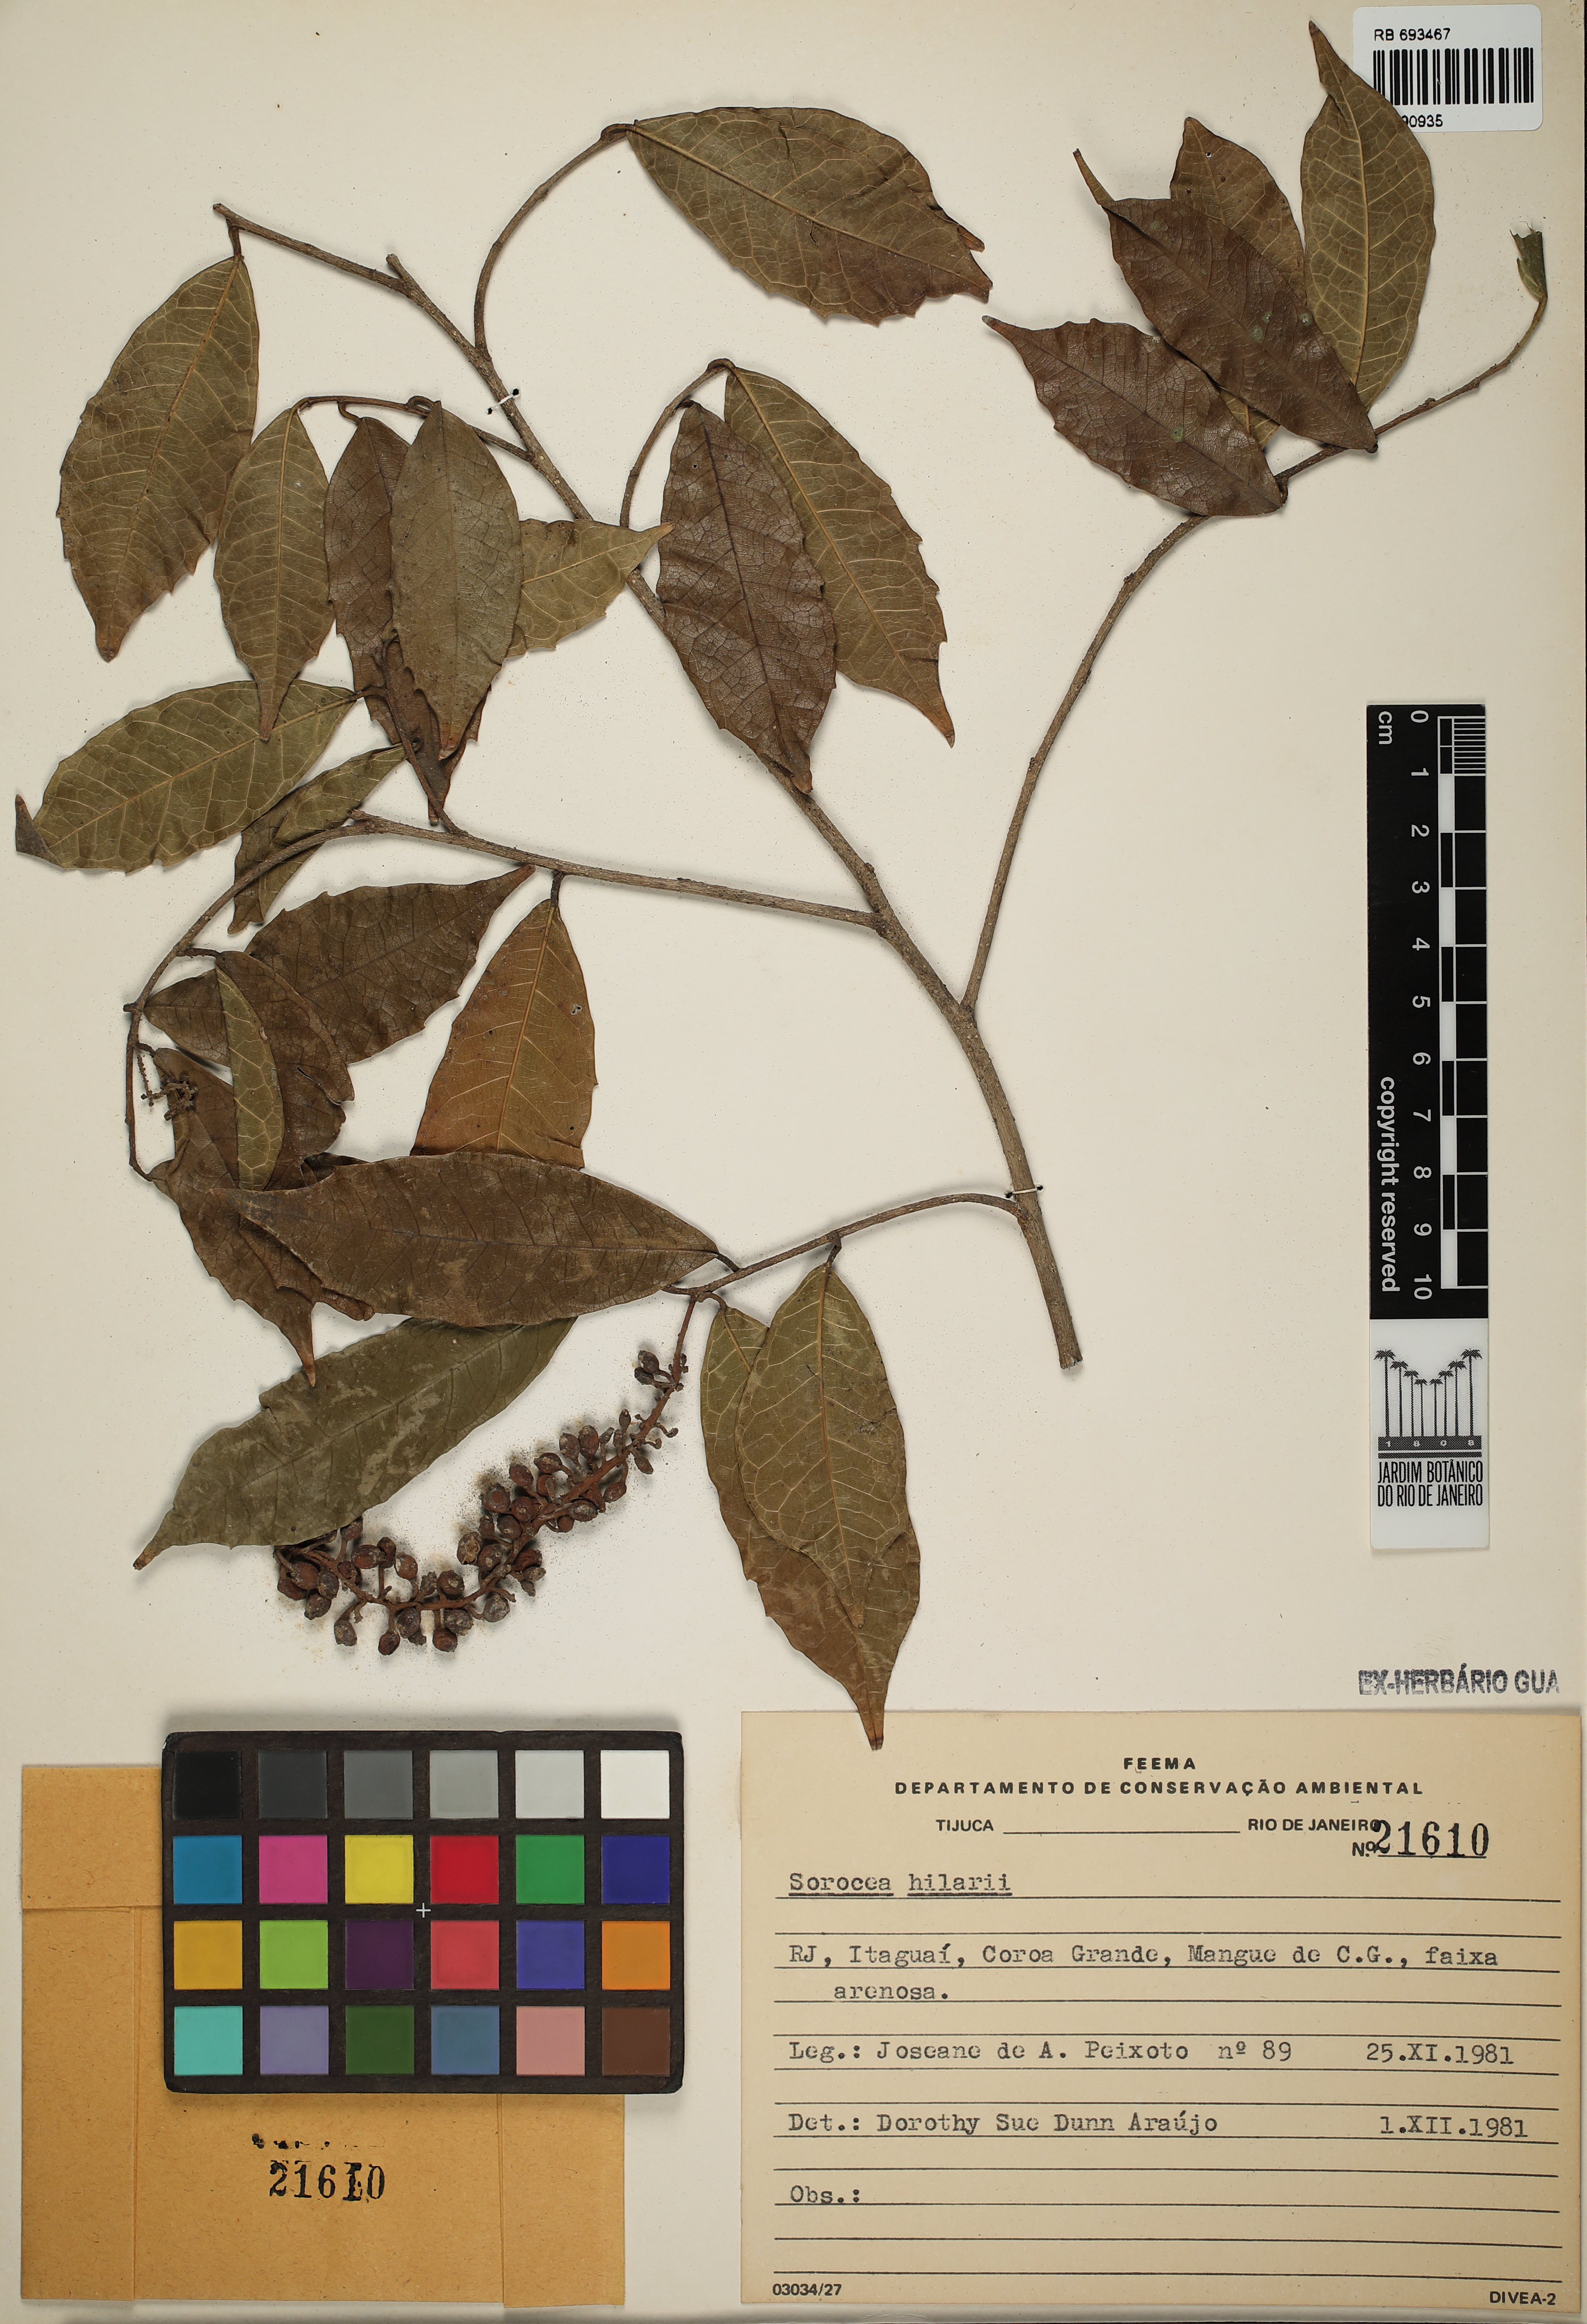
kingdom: Plantae
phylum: Tracheophyta
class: Magnoliopsida
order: Rosales
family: Moraceae
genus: Sorocea
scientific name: Sorocea hilarii
